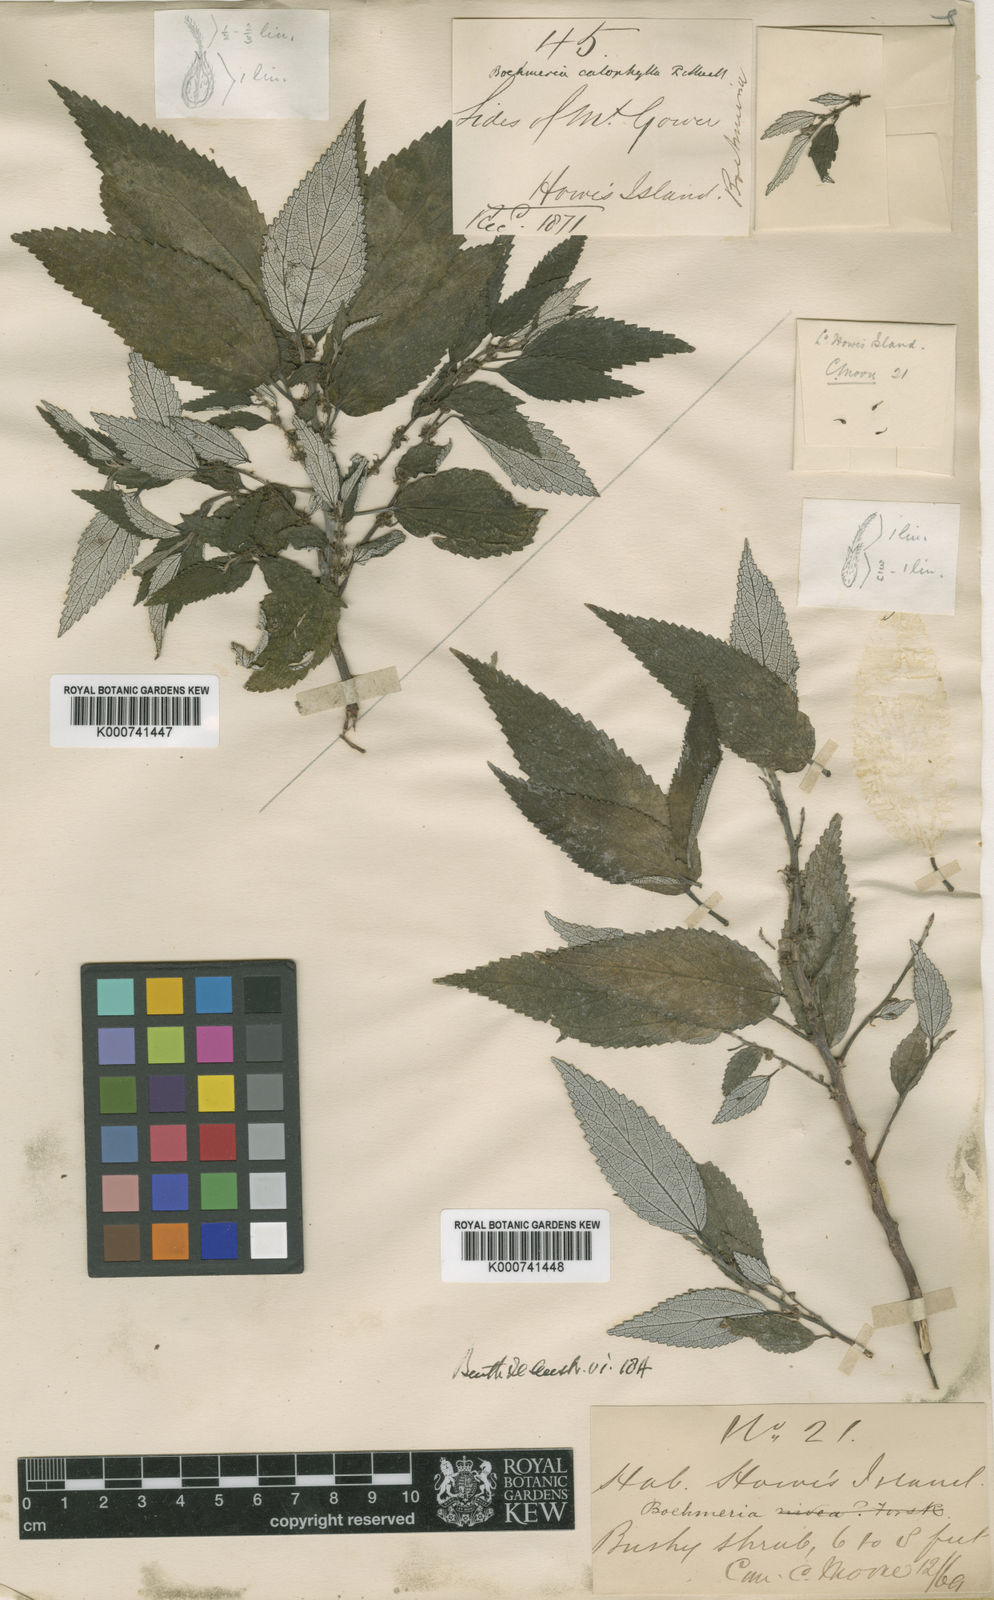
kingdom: Plantae
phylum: Tracheophyta
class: Magnoliopsida
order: Rosales
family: Urticaceae
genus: Pouzolzia
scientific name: Pouzolzia australis
